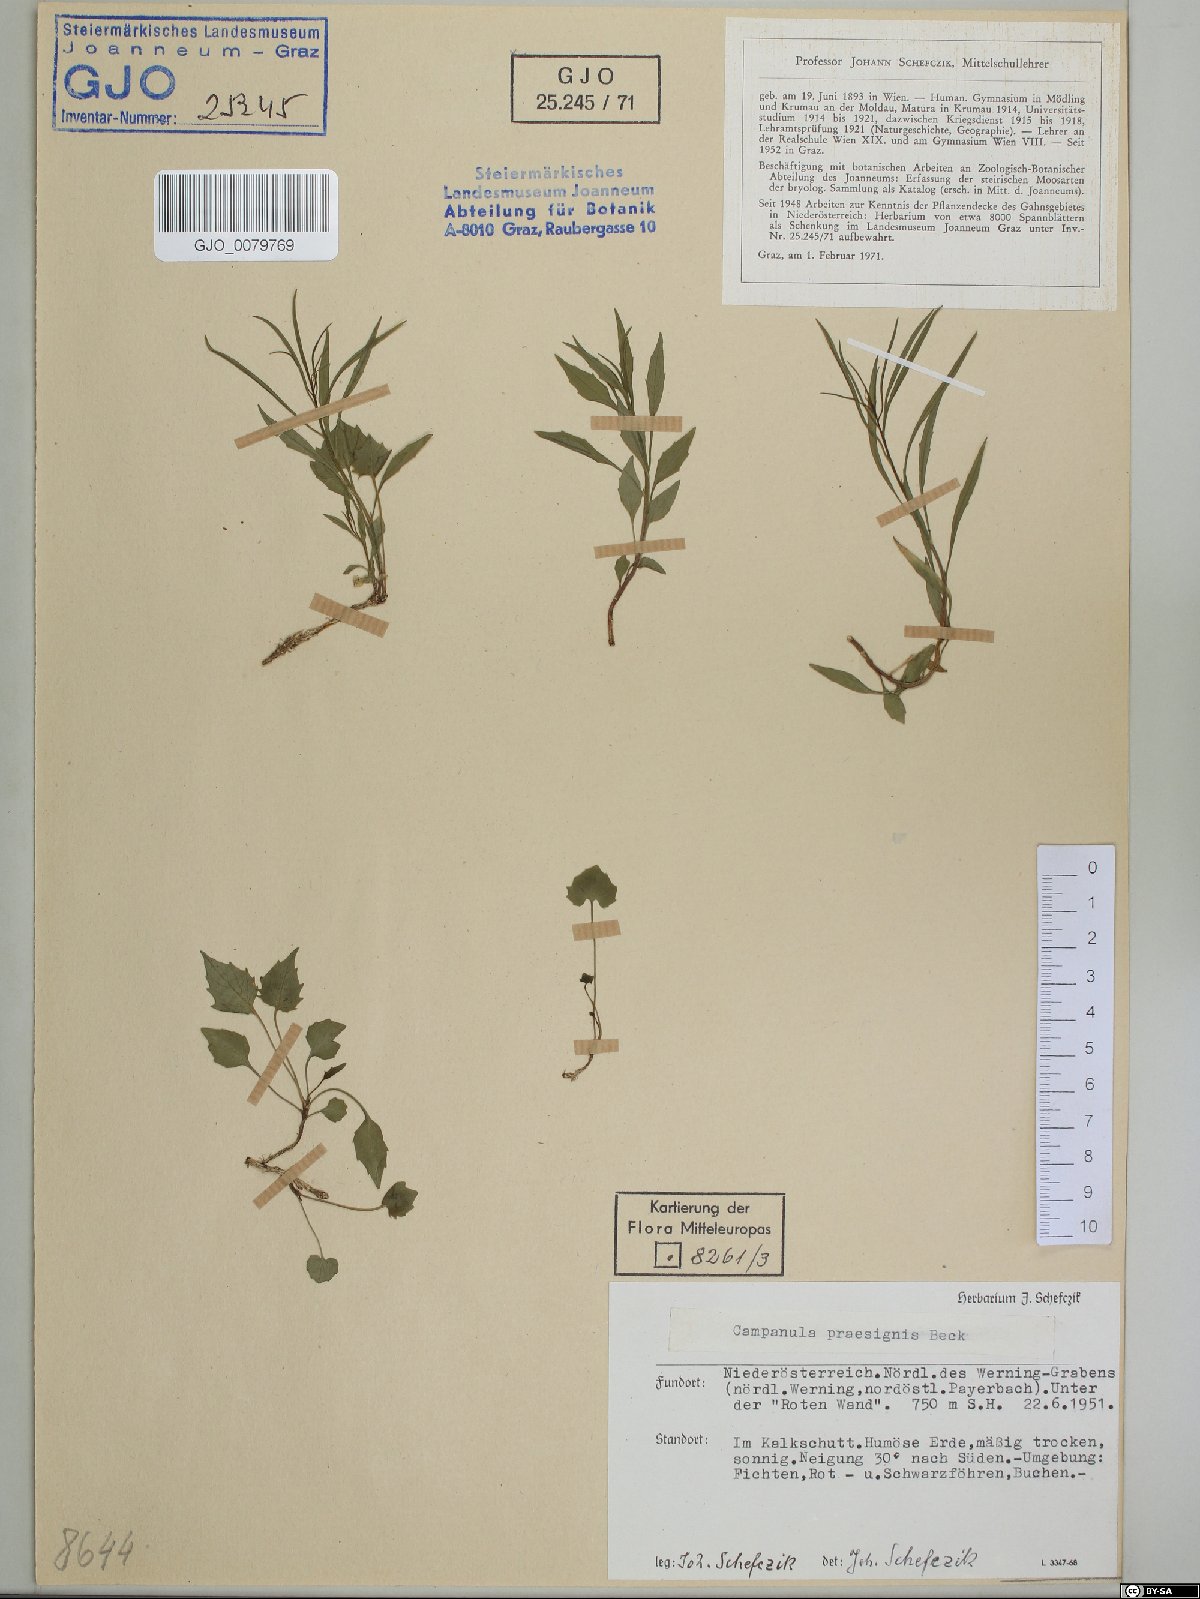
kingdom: Plantae
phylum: Tracheophyta
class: Magnoliopsida
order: Asterales
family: Campanulaceae
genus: Campanula
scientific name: Campanula praesignis
